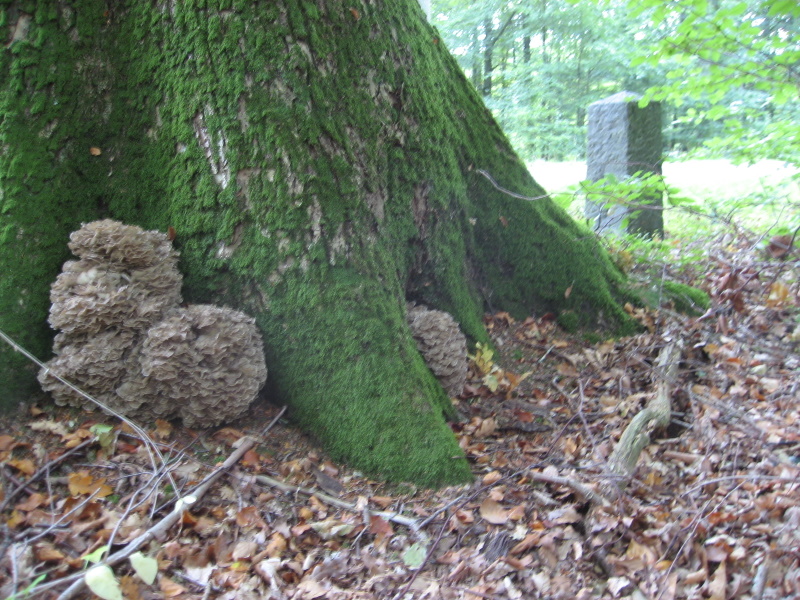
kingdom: Fungi
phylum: Basidiomycota
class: Agaricomycetes
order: Polyporales
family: Grifolaceae
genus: Grifola
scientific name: Grifola frondosa
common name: tueporesvamp
